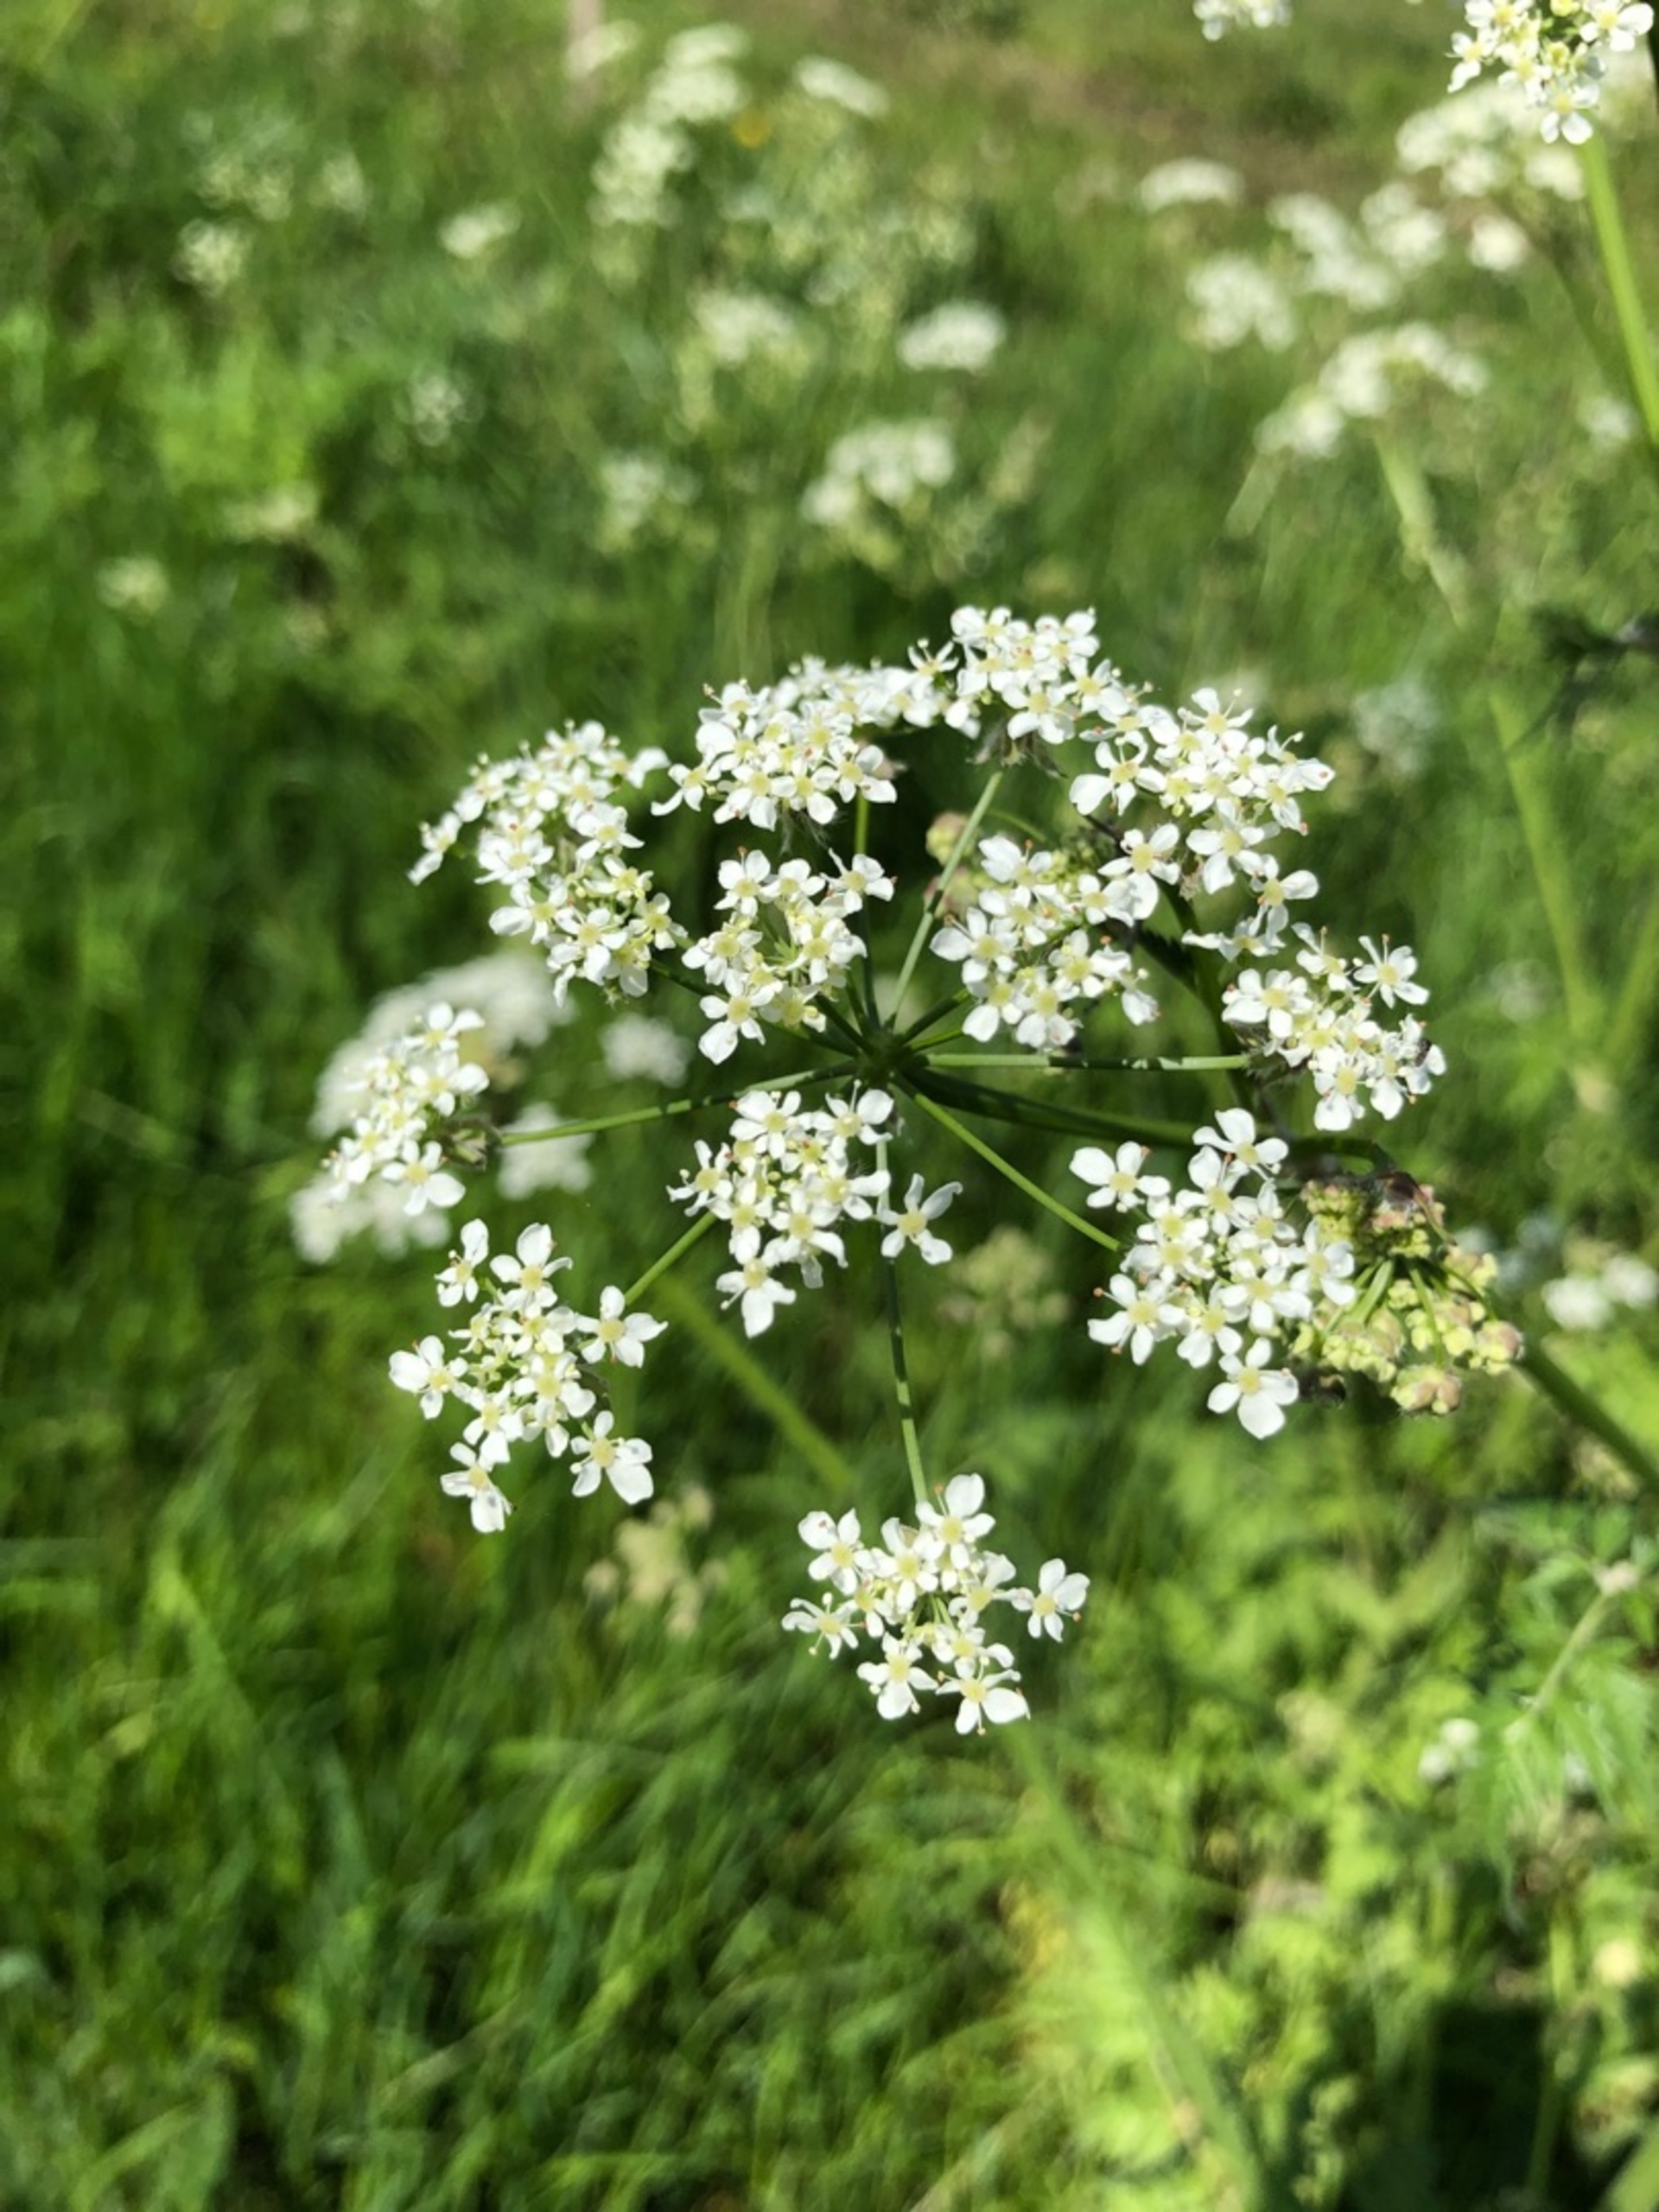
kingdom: Plantae
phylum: Tracheophyta
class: Magnoliopsida
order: Apiales
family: Apiaceae
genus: Anthriscus
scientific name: Anthriscus sylvestris
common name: Vild kørvel
